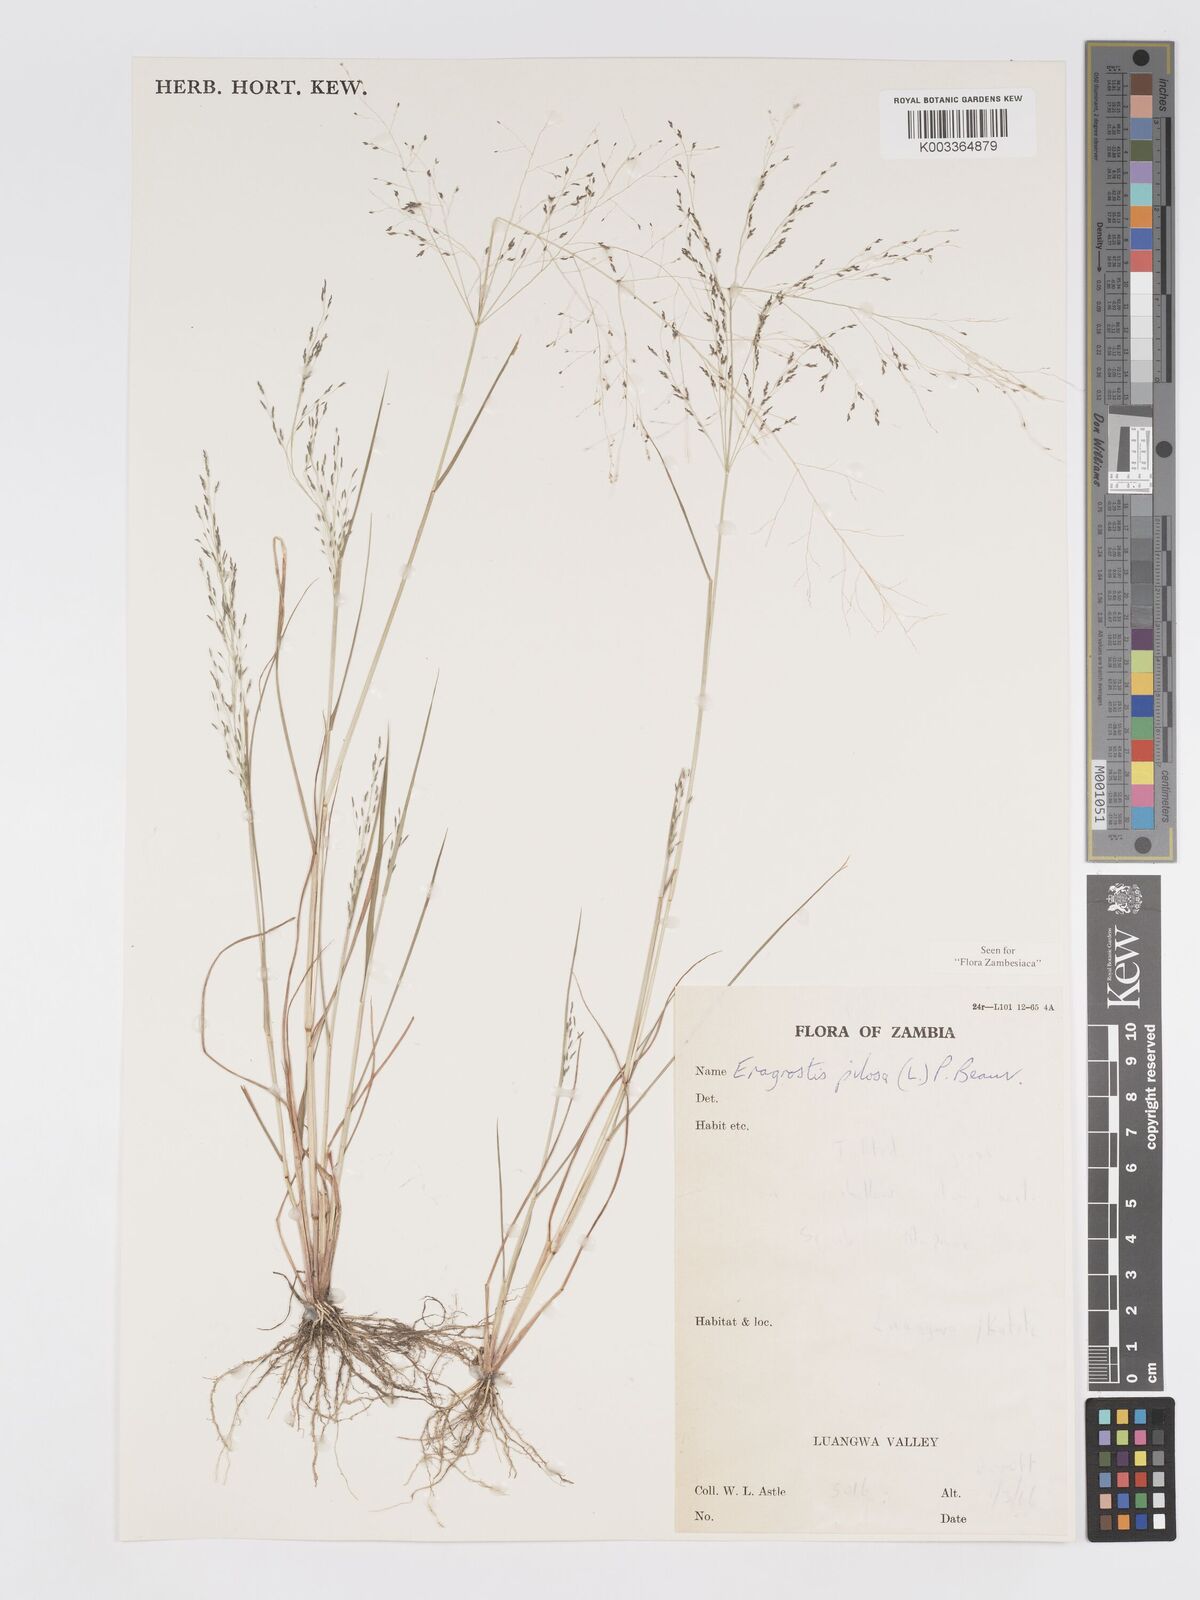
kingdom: Plantae
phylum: Tracheophyta
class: Liliopsida
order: Poales
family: Poaceae
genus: Eragrostis
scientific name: Eragrostis pilosa
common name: Indian lovegrass
